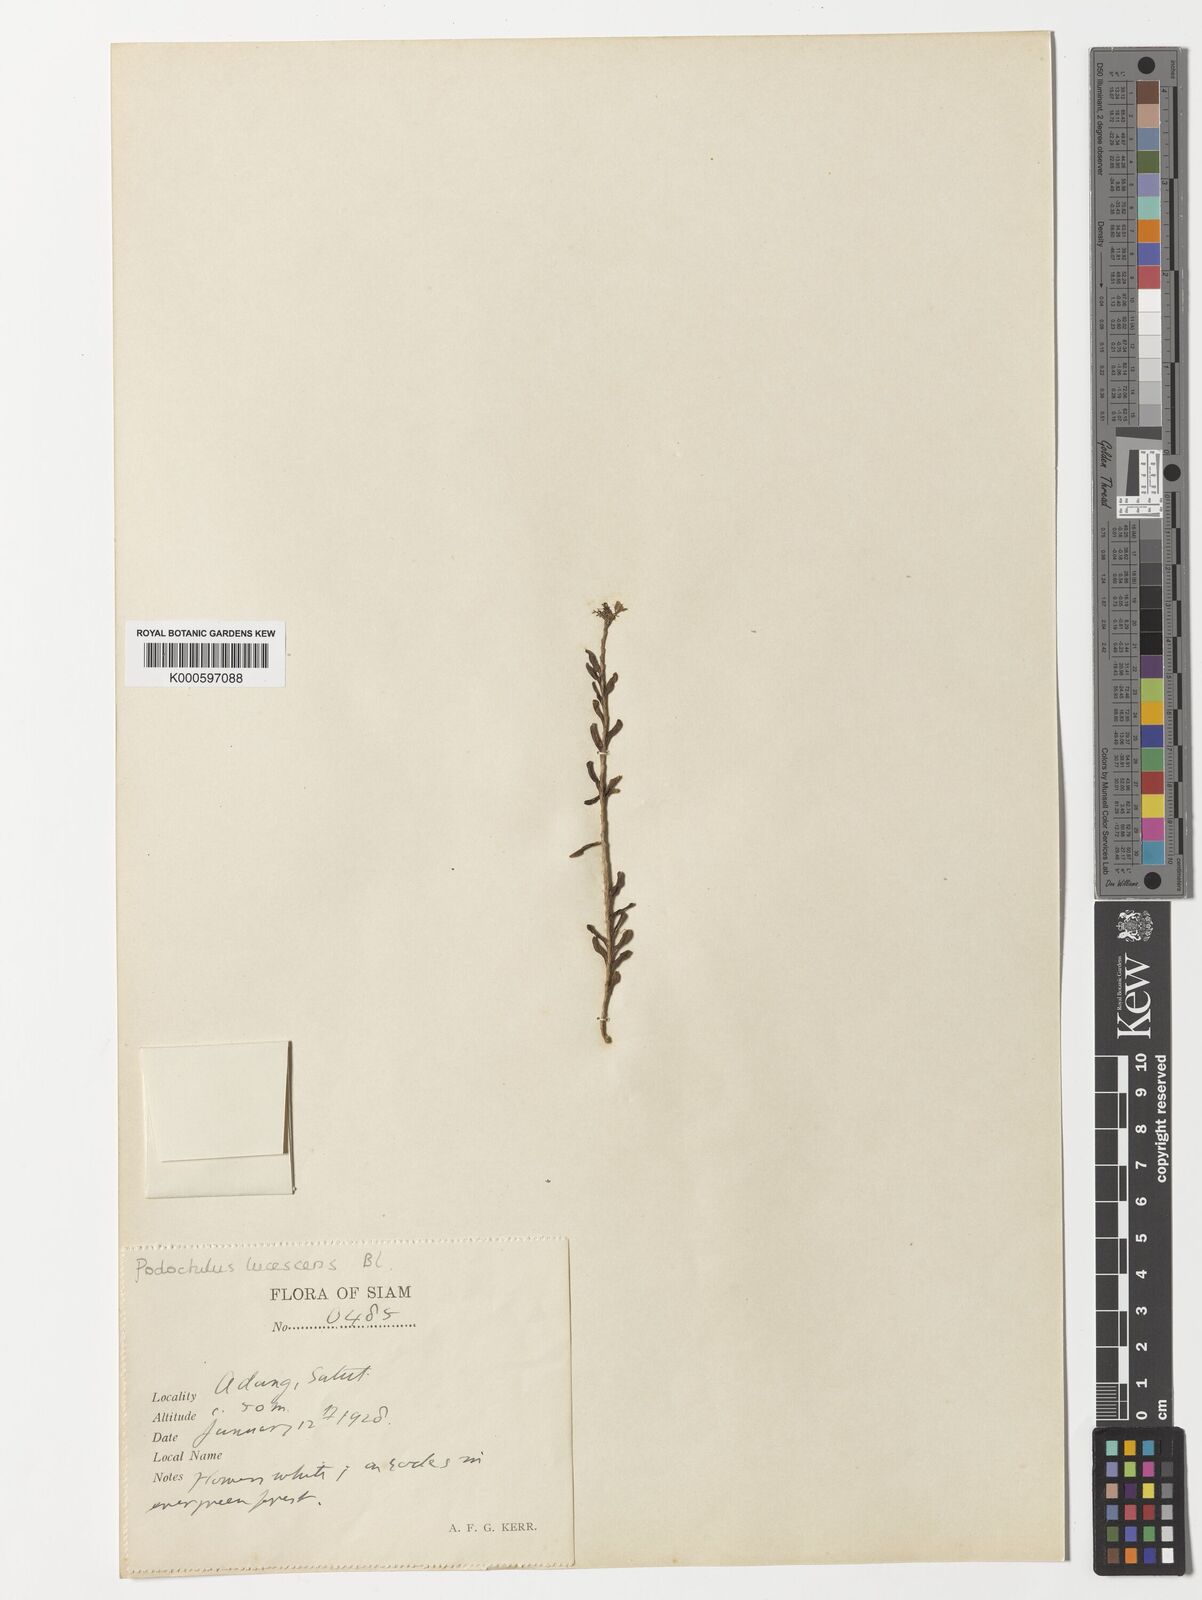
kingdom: Plantae
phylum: Tracheophyta
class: Liliopsida
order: Asparagales
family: Orchidaceae
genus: Podochilus
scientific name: Podochilus lucescens
